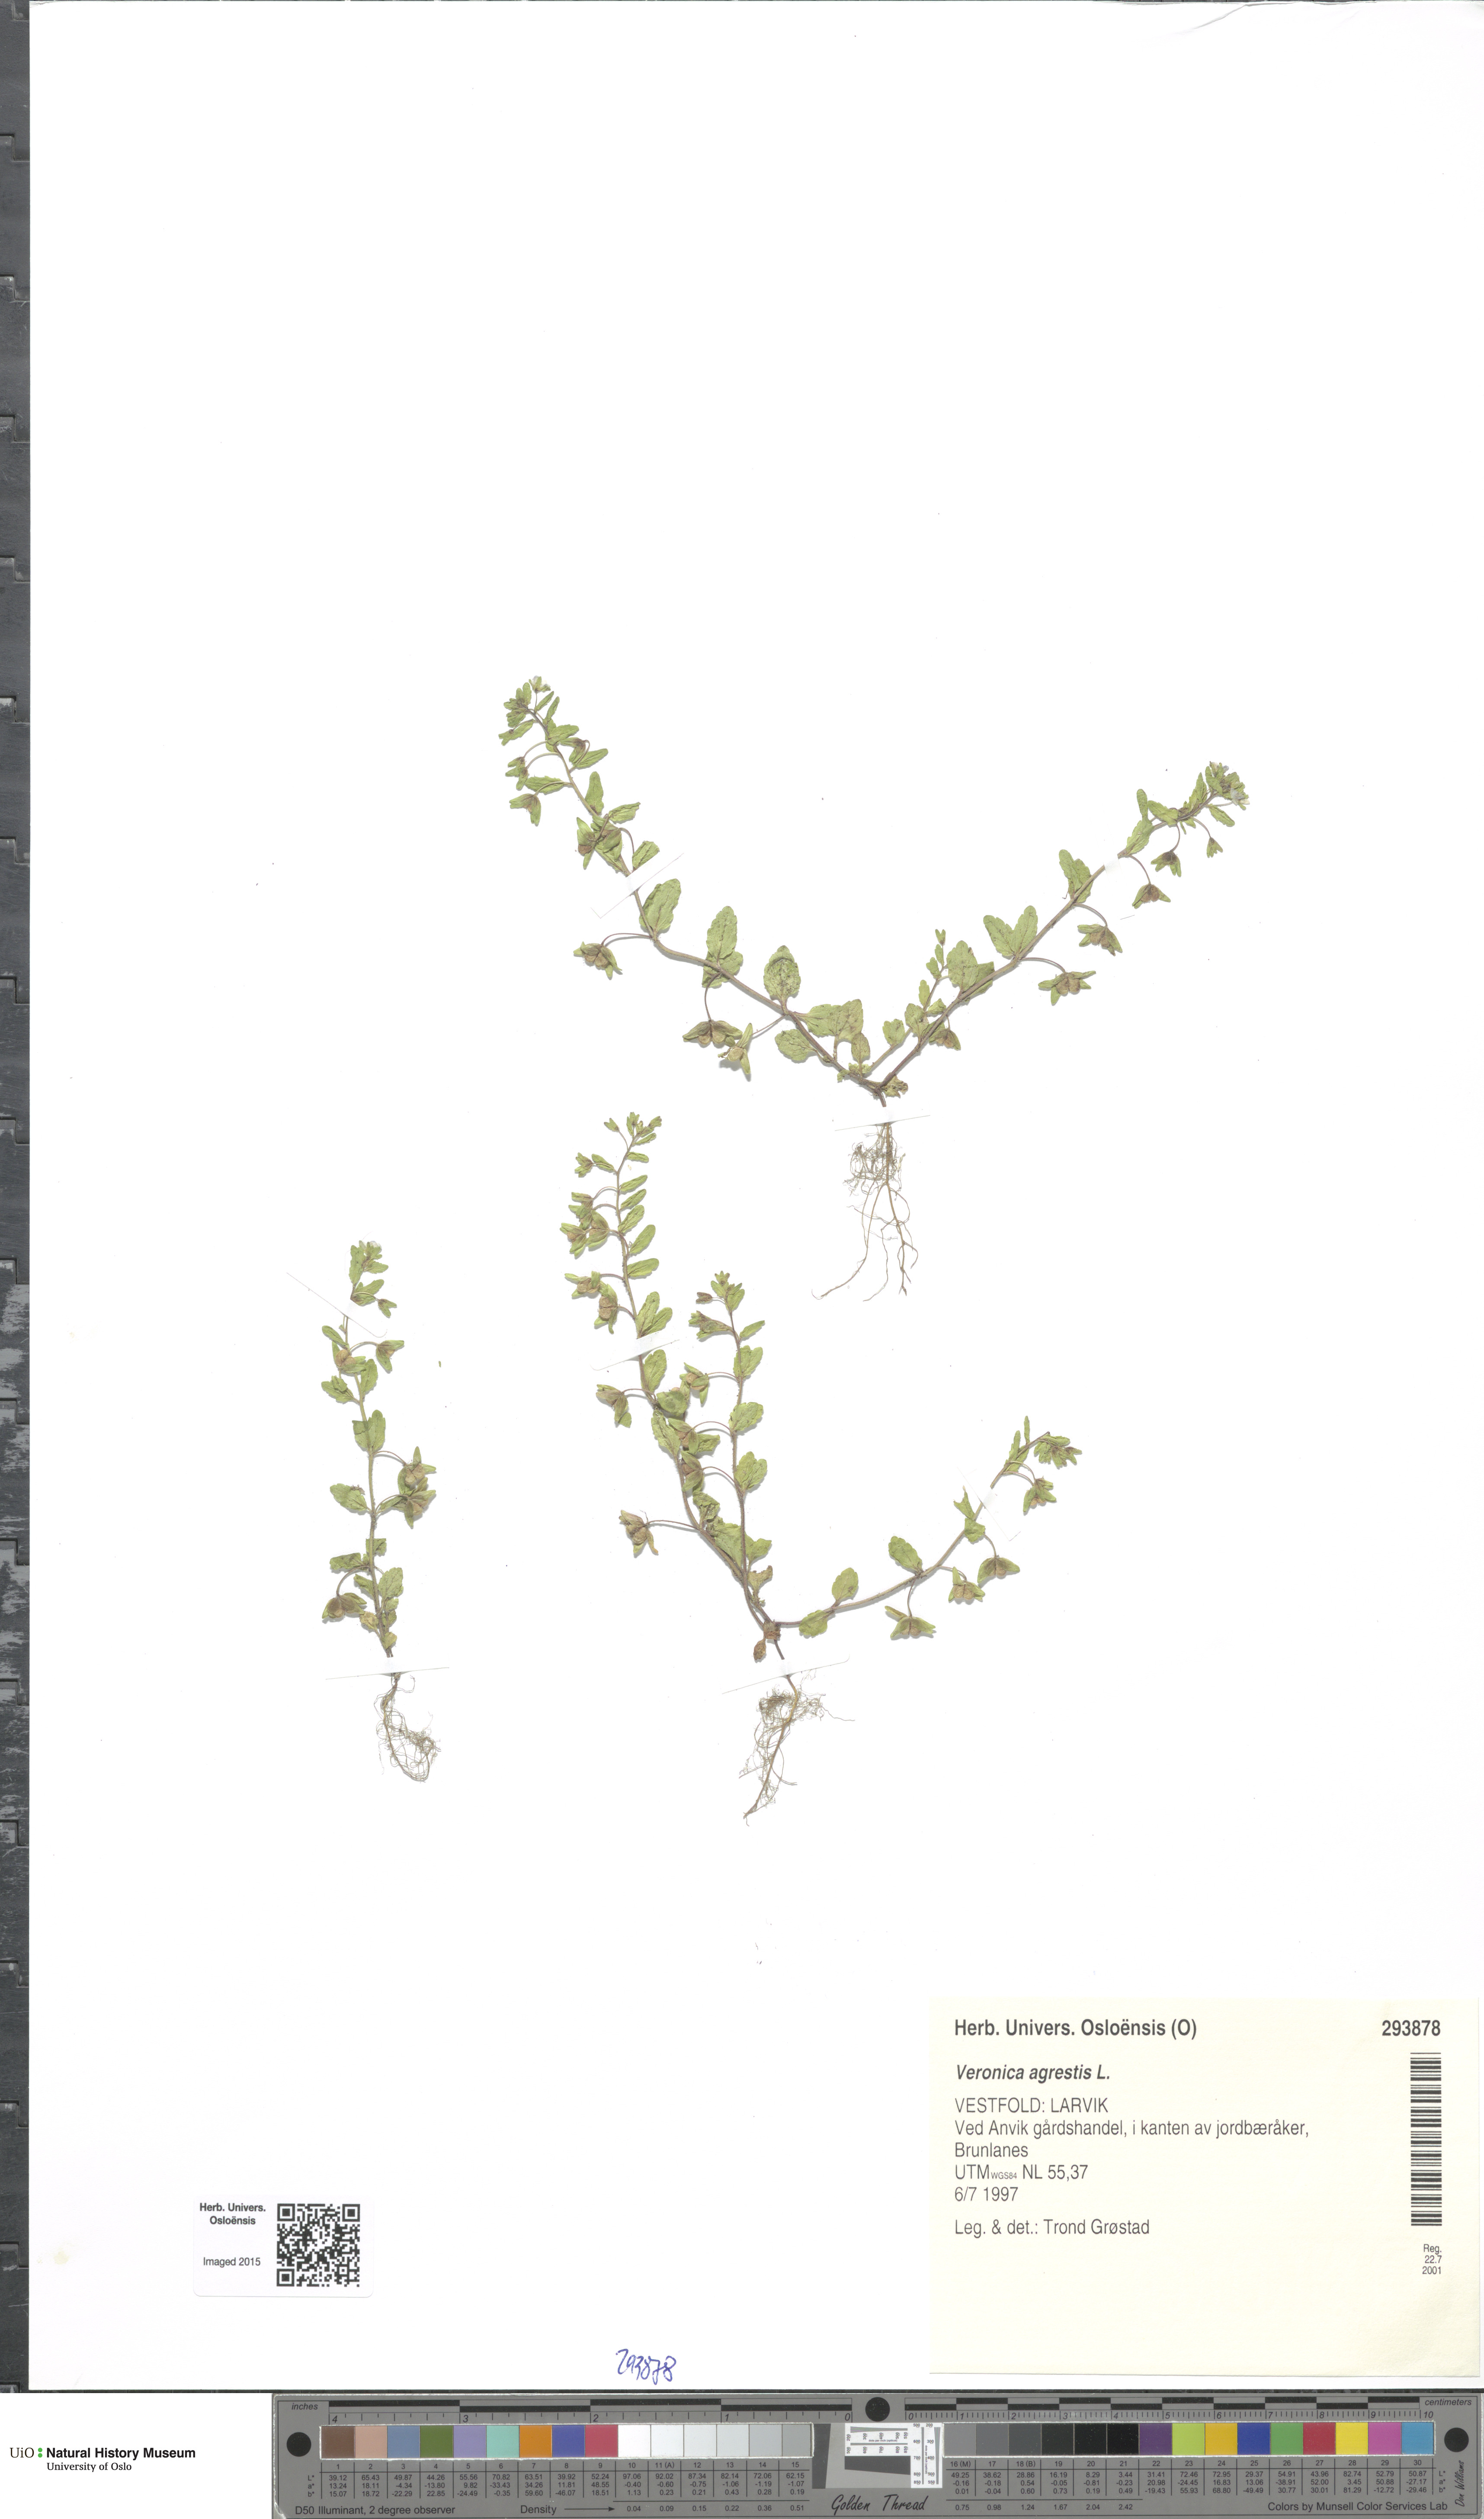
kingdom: Plantae
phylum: Tracheophyta
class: Magnoliopsida
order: Lamiales
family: Plantaginaceae
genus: Veronica
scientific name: Veronica agrestis
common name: Green field-speedwell
